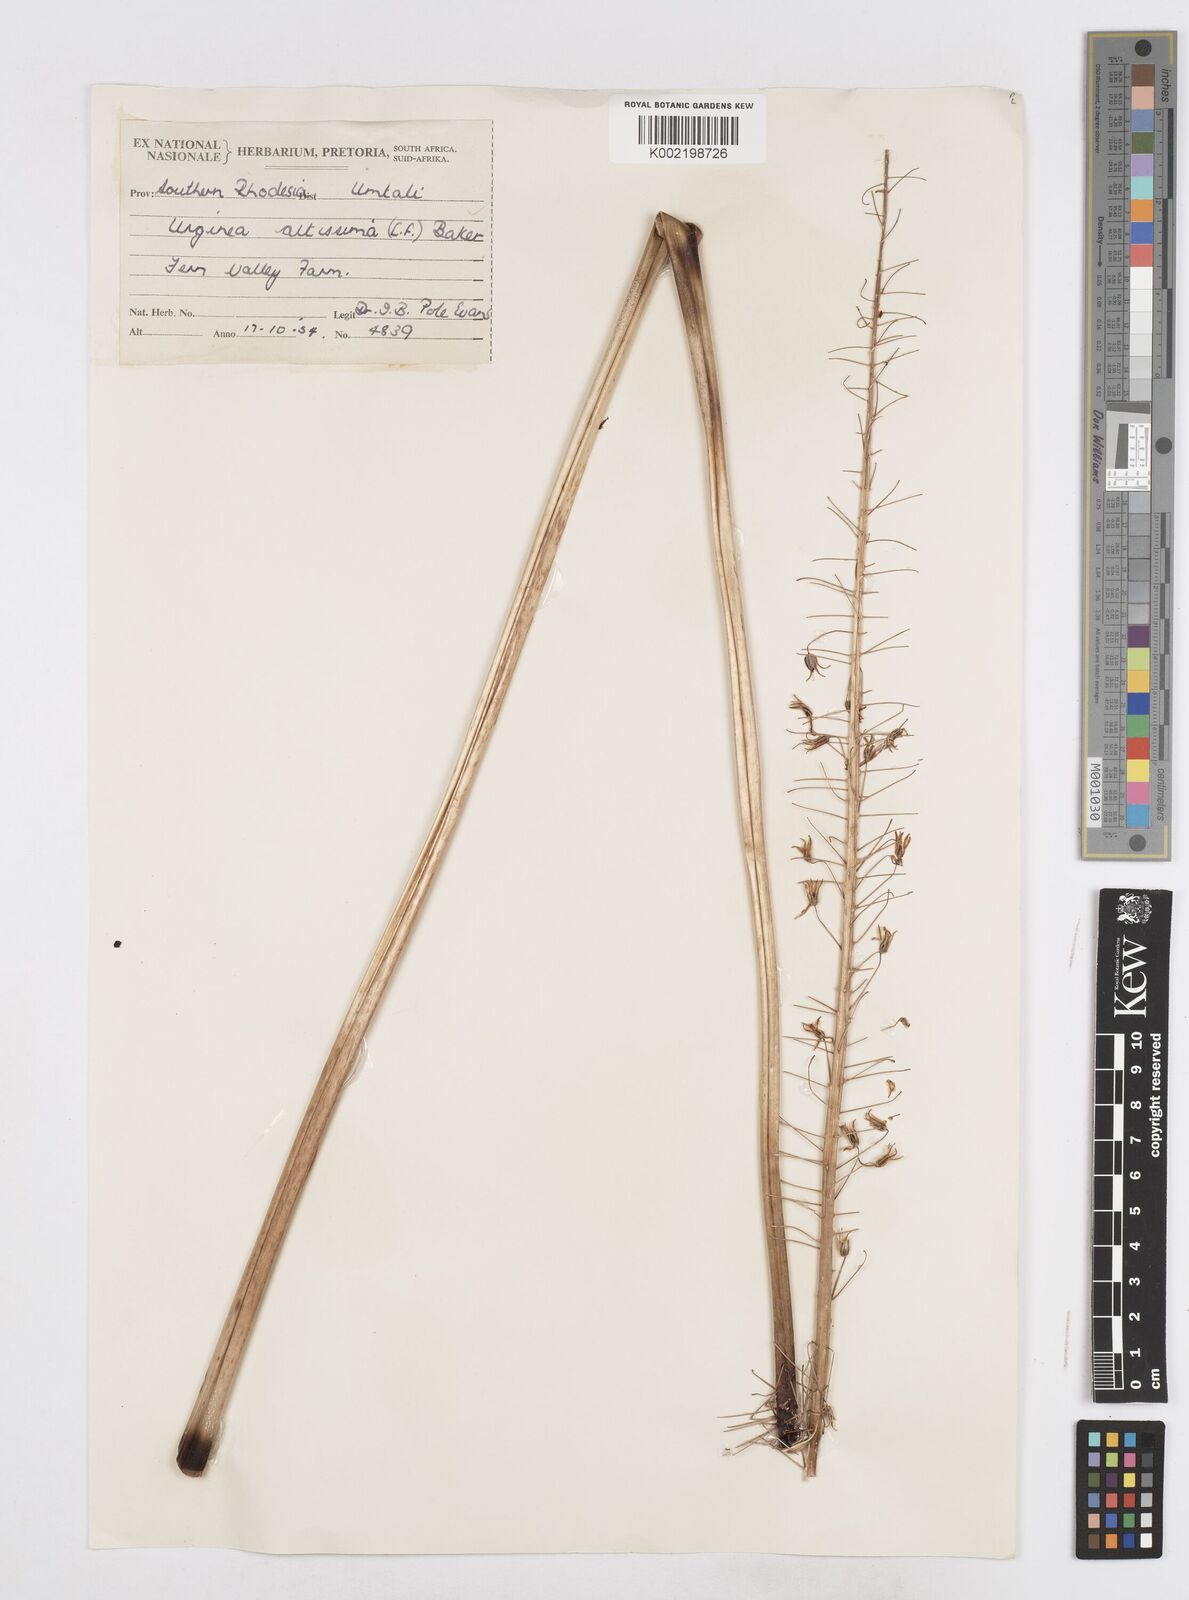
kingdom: Plantae
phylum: Tracheophyta
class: Liliopsida
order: Asparagales
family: Asparagaceae
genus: Drimia
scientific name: Drimia
